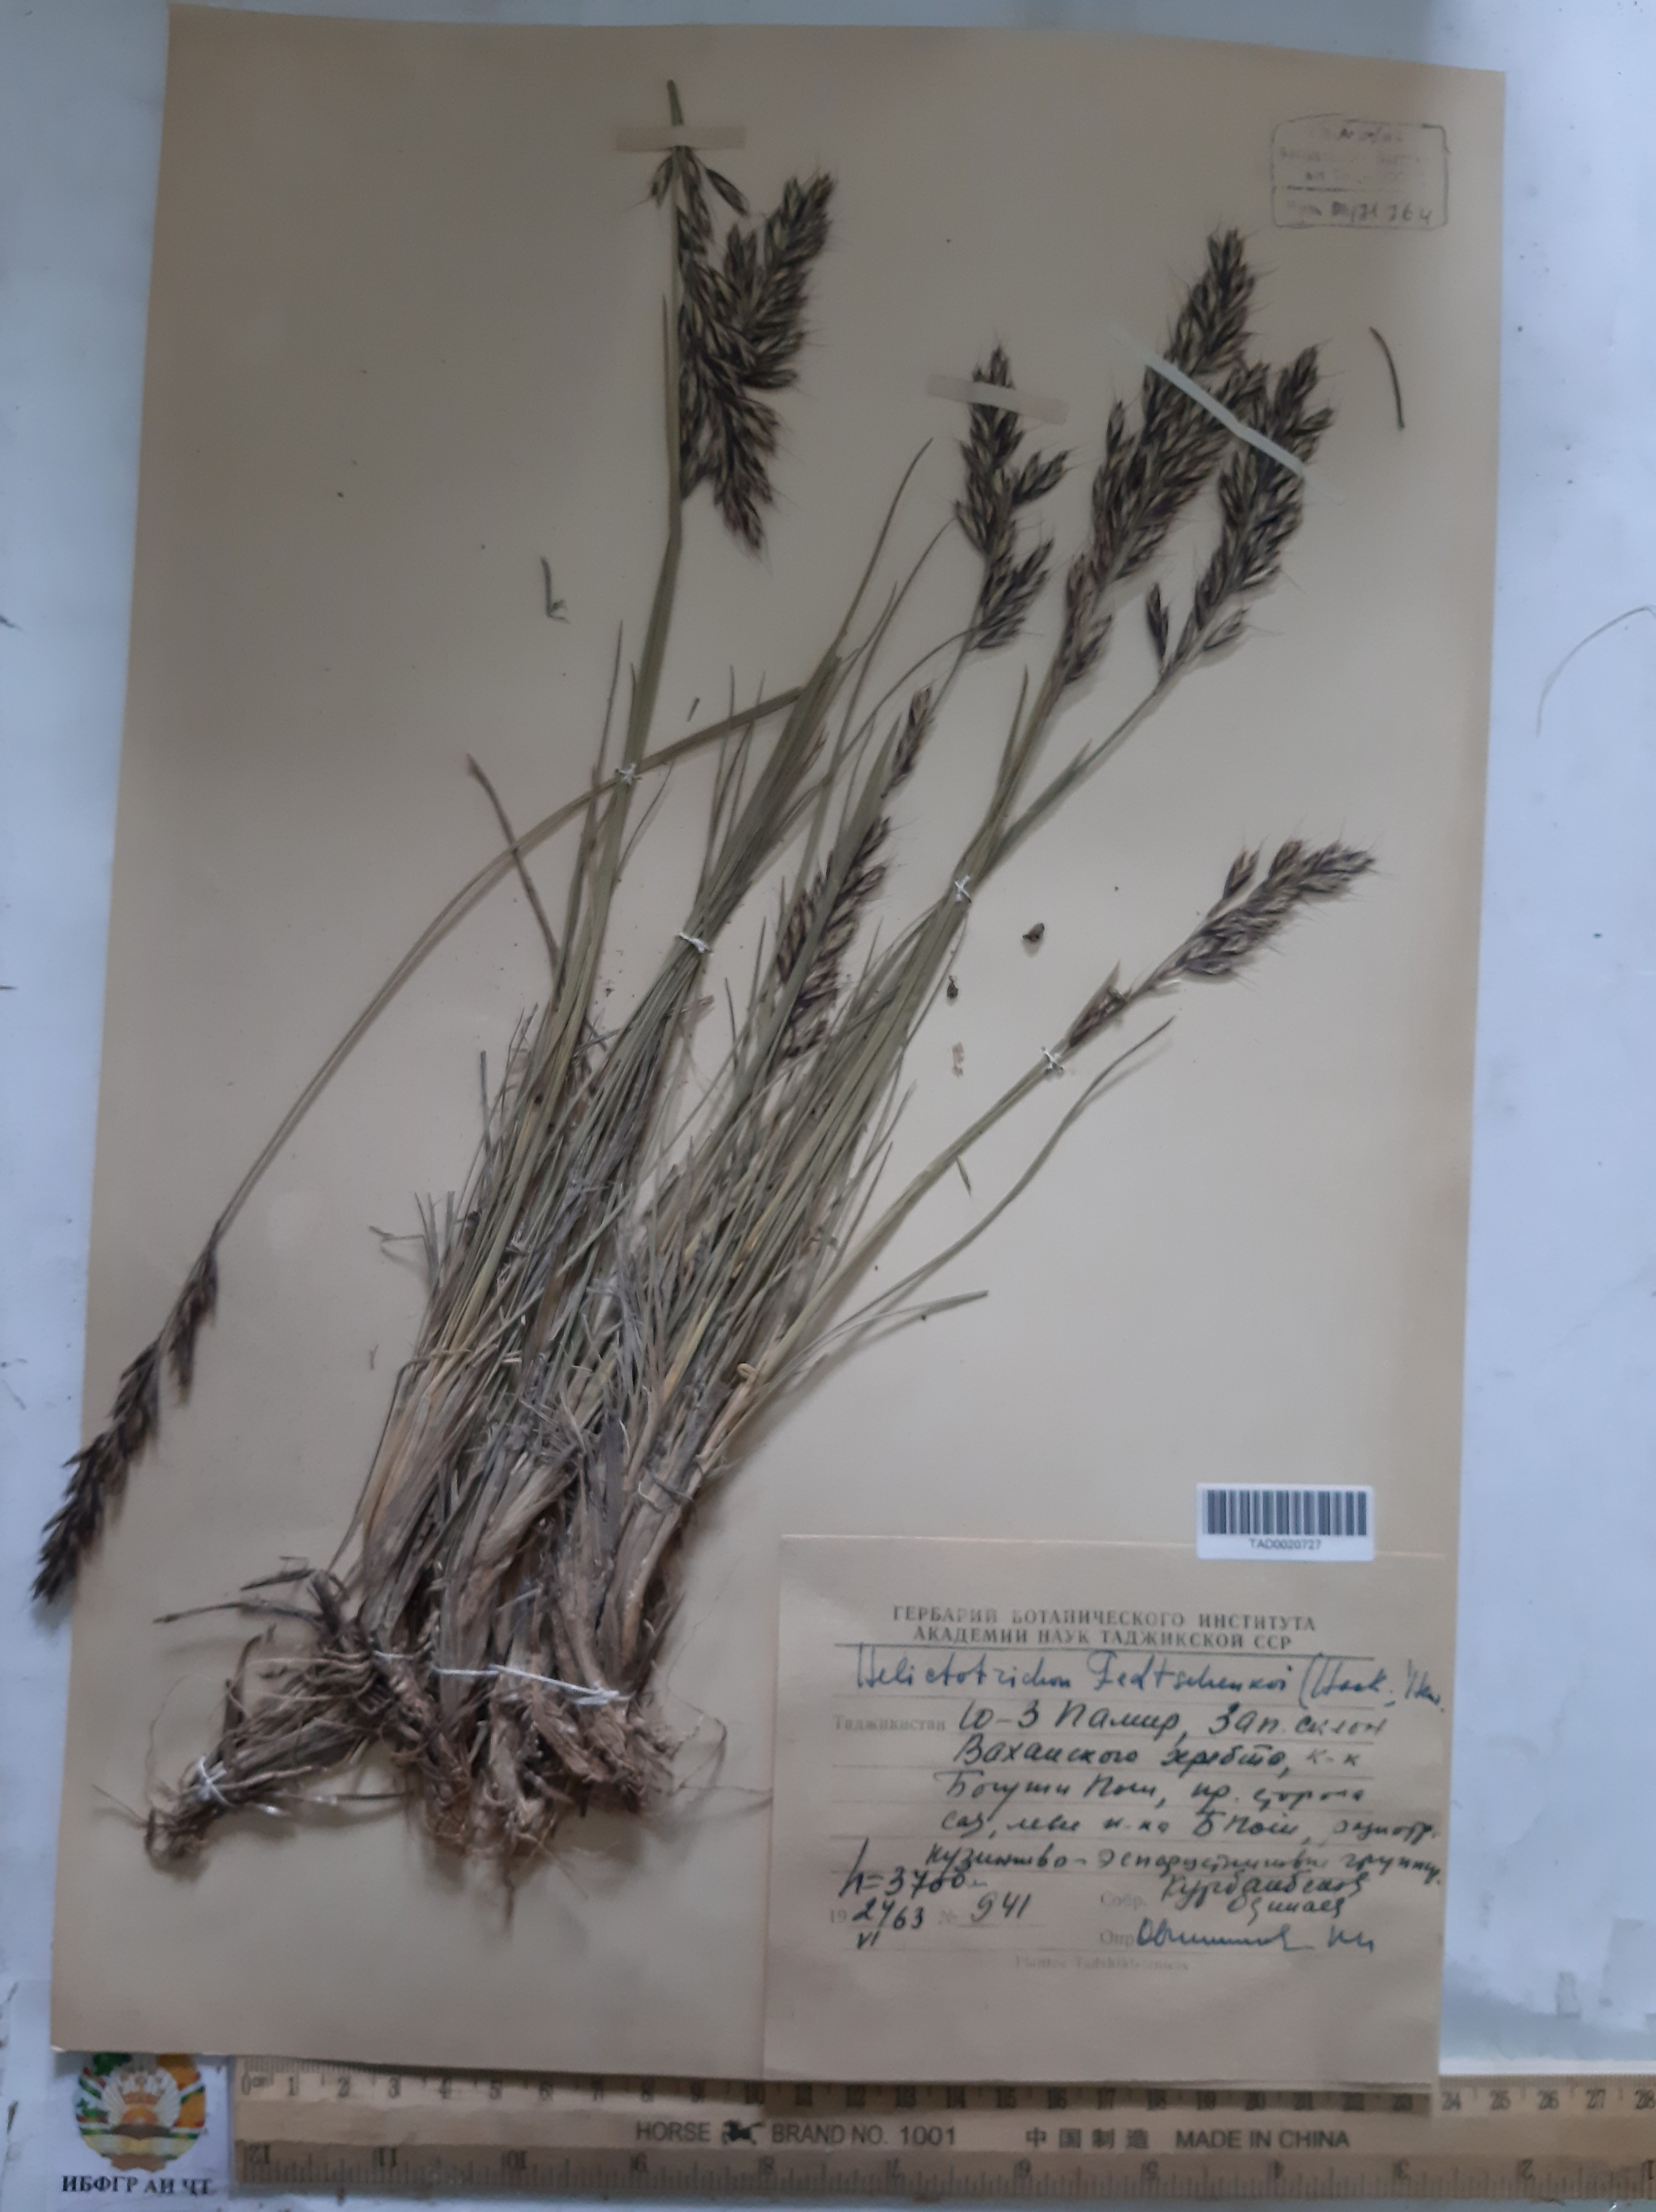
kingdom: Plantae
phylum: Tracheophyta
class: Liliopsida
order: Poales
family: Poaceae
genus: Helictotrichon
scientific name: Helictotrichon fedtschenkoi
